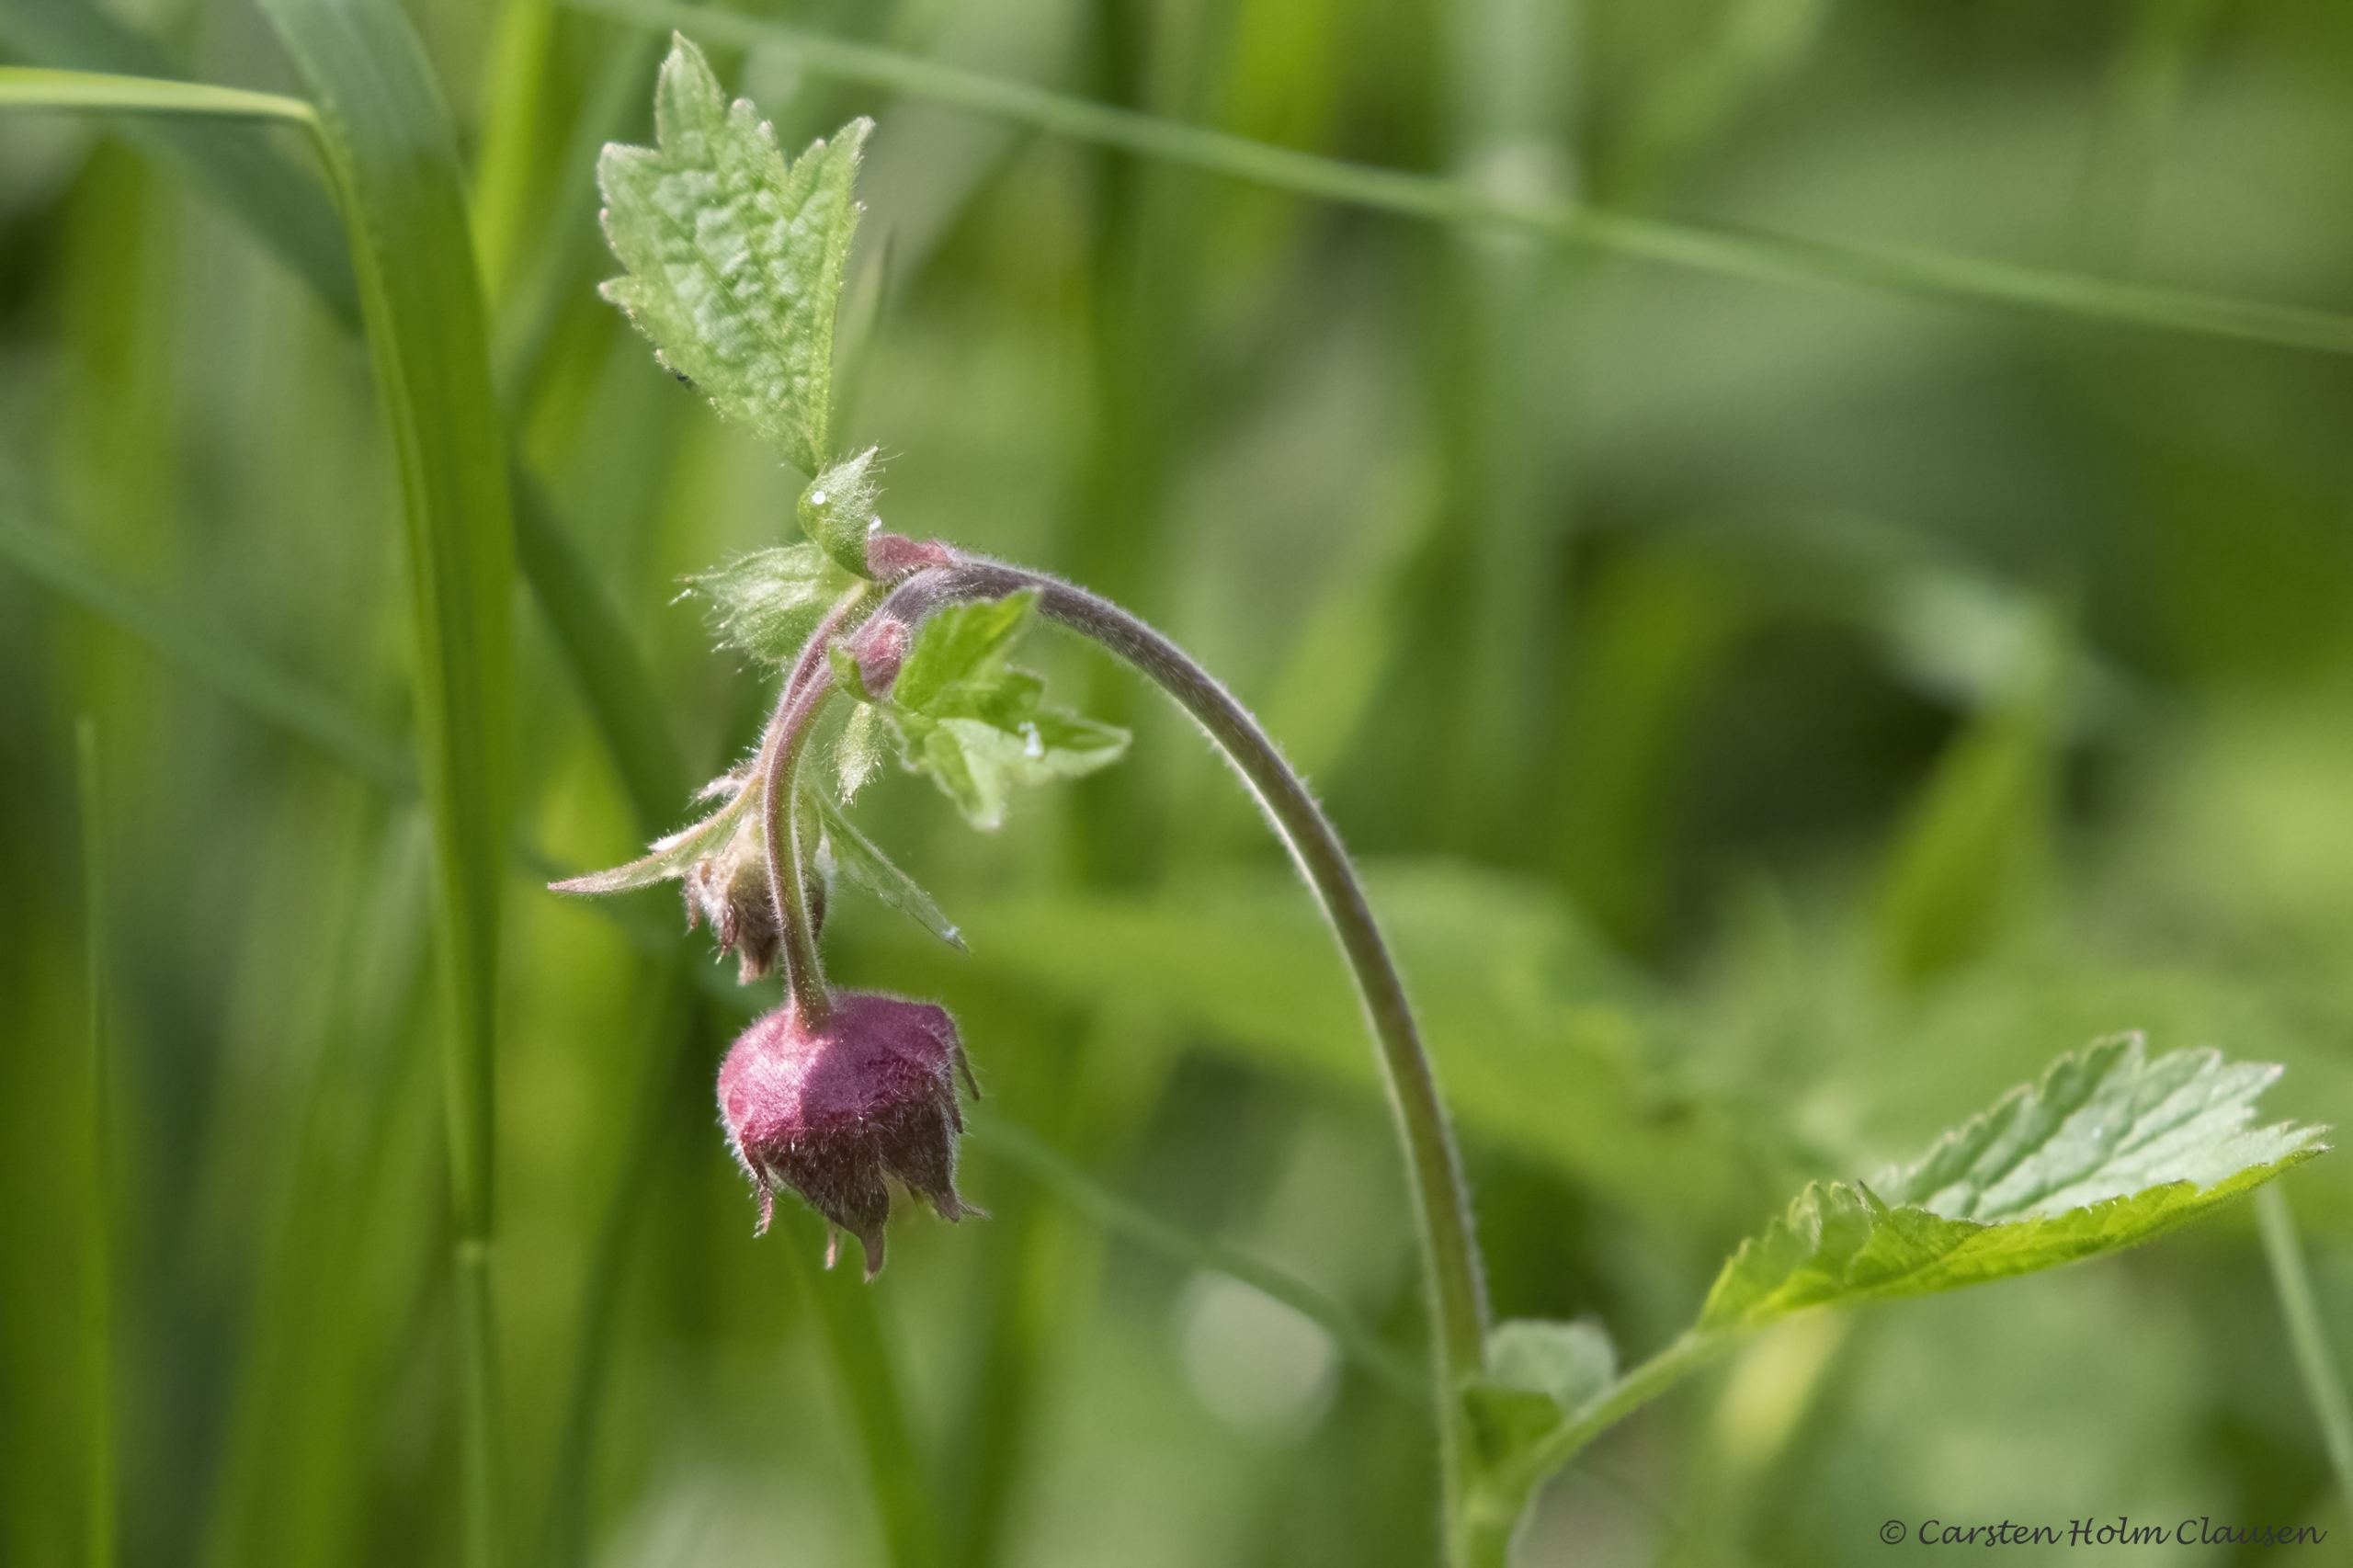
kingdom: Plantae
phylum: Tracheophyta
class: Magnoliopsida
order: Rosales
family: Rosaceae
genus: Geum
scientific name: Geum rivale
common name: Eng-nellikerod
